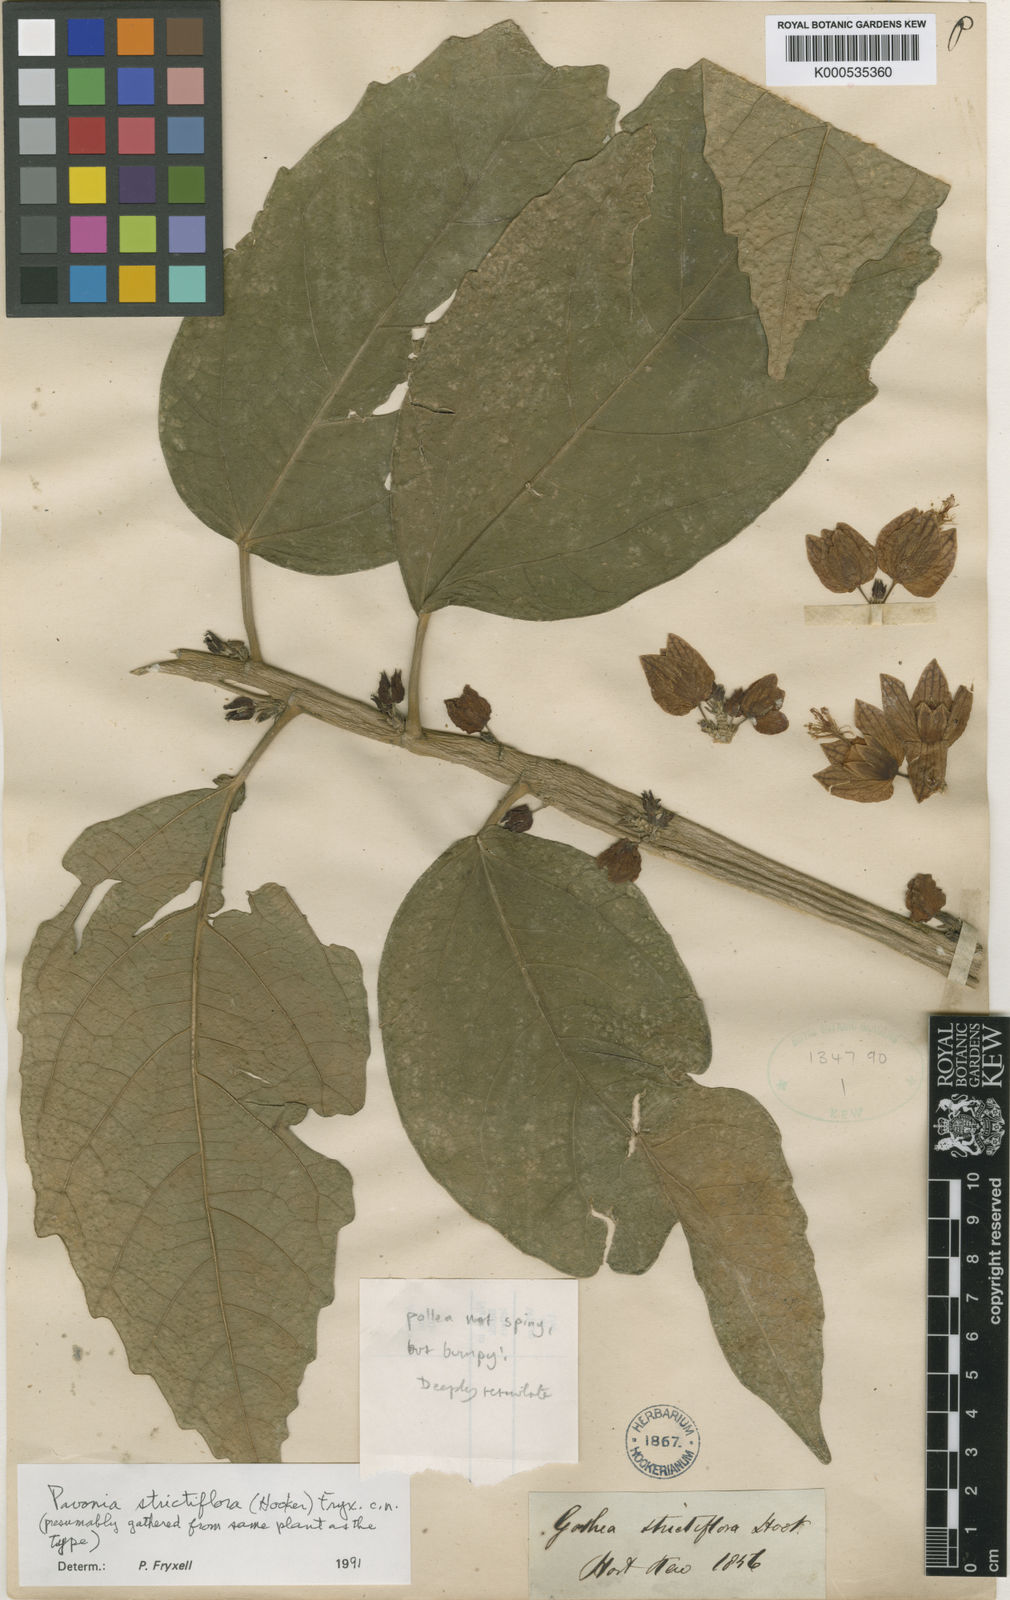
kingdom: Plantae
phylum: Tracheophyta
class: Magnoliopsida
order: Malvales
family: Malvaceae
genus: Pavonia
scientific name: Pavonia strictiflora
